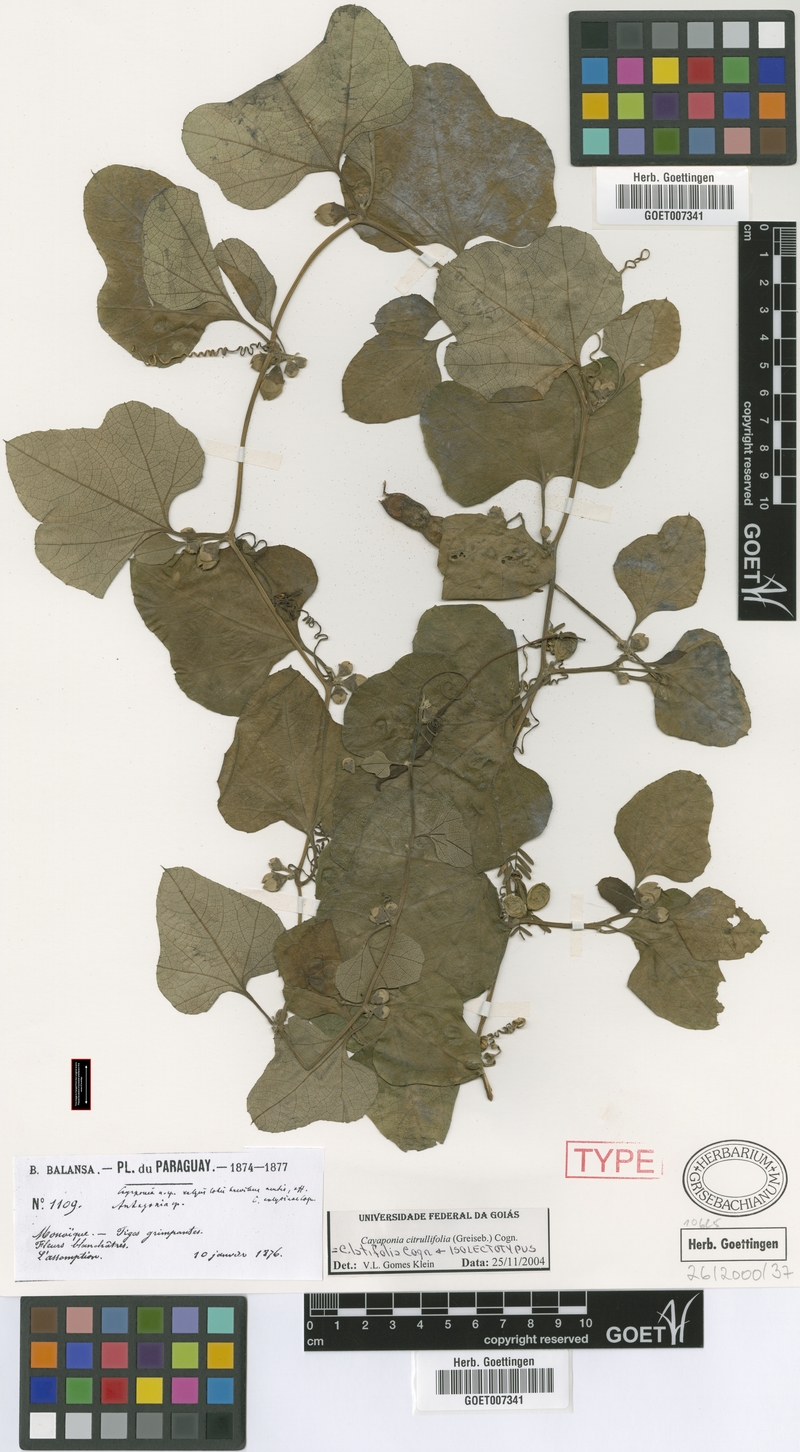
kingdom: Plantae
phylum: Tracheophyta
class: Magnoliopsida
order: Cucurbitales
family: Cucurbitaceae
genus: Cayaponia
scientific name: Cayaponia citrullifolia
